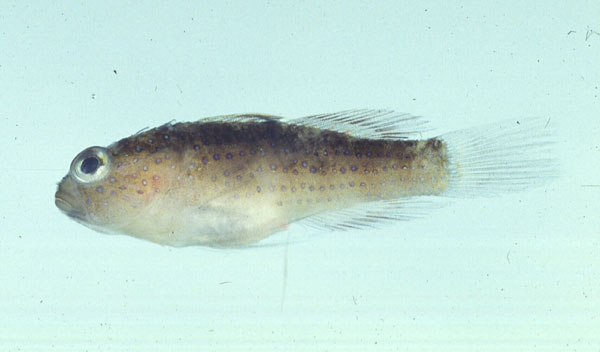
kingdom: Animalia
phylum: Chordata
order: Perciformes
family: Gobiidae
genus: Asterropteryx
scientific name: Asterropteryx ensifera
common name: Blue-speckled rubble goby
